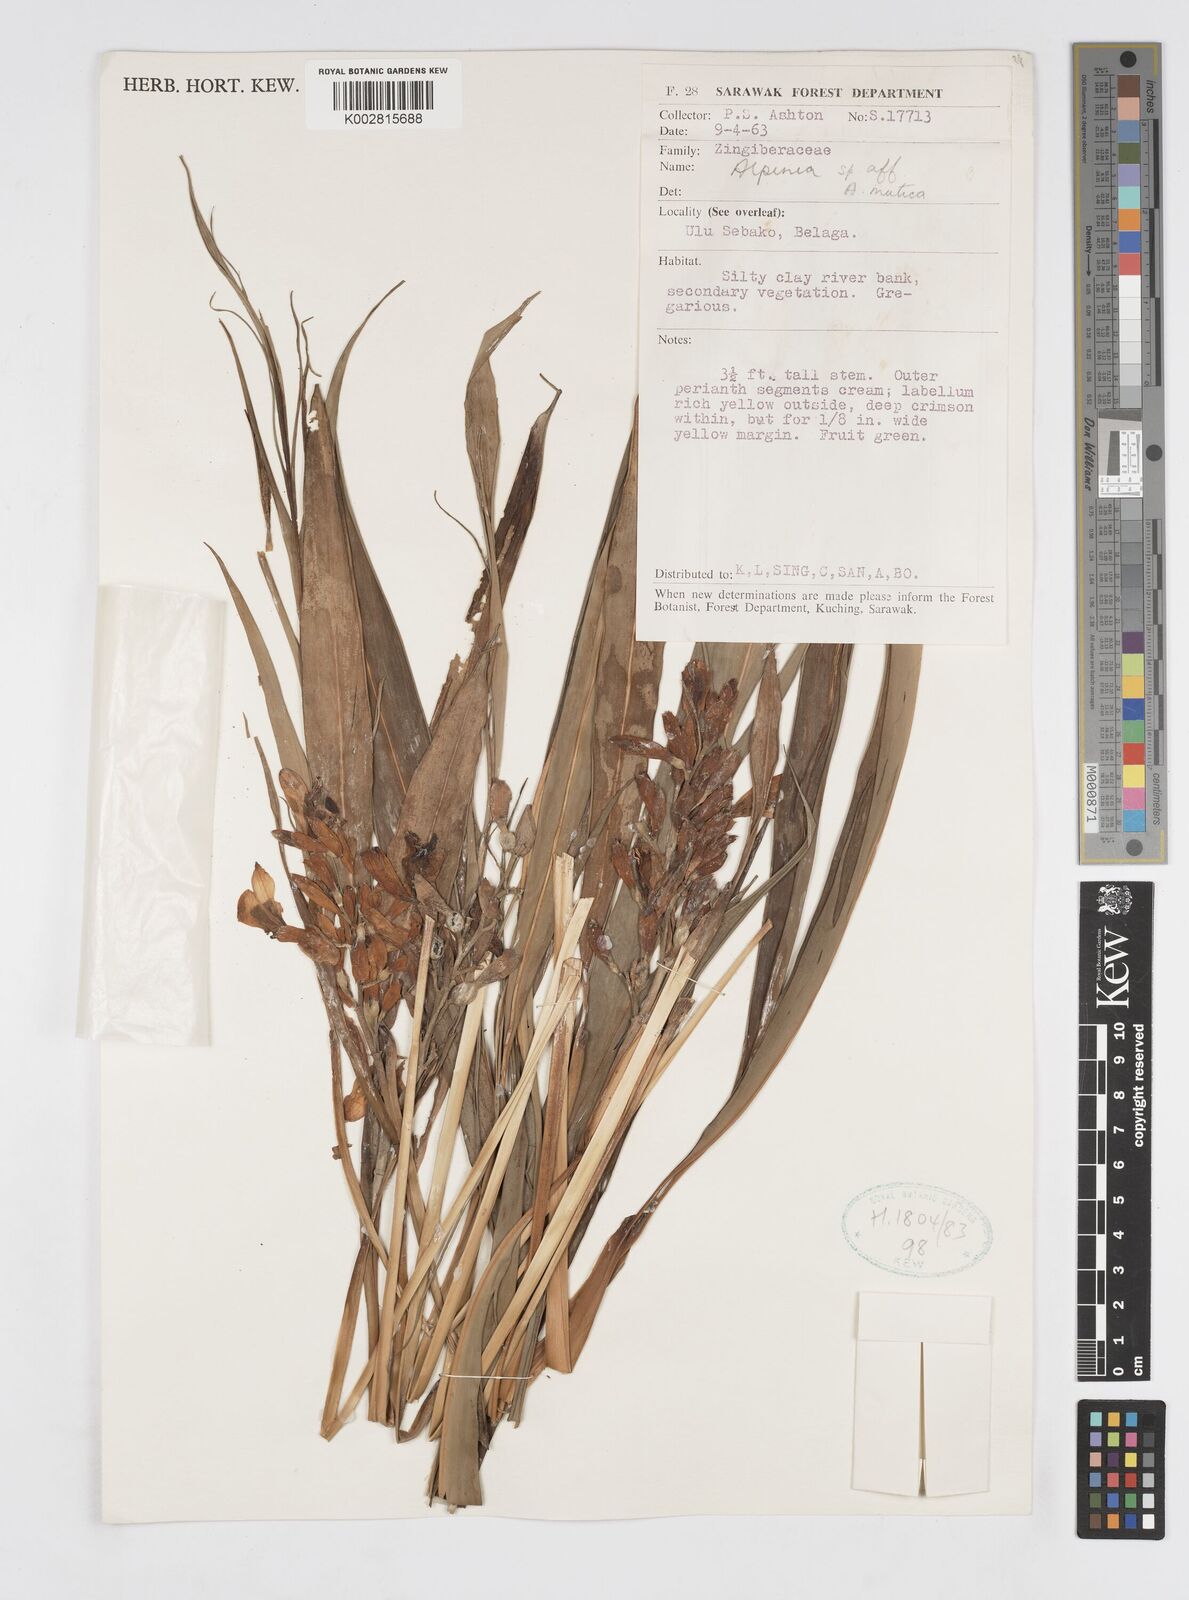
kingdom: Plantae
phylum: Tracheophyta
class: Liliopsida
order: Zingiberales
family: Zingiberaceae
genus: Alpinia
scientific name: Alpinia mutica
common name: Small shell ginger
